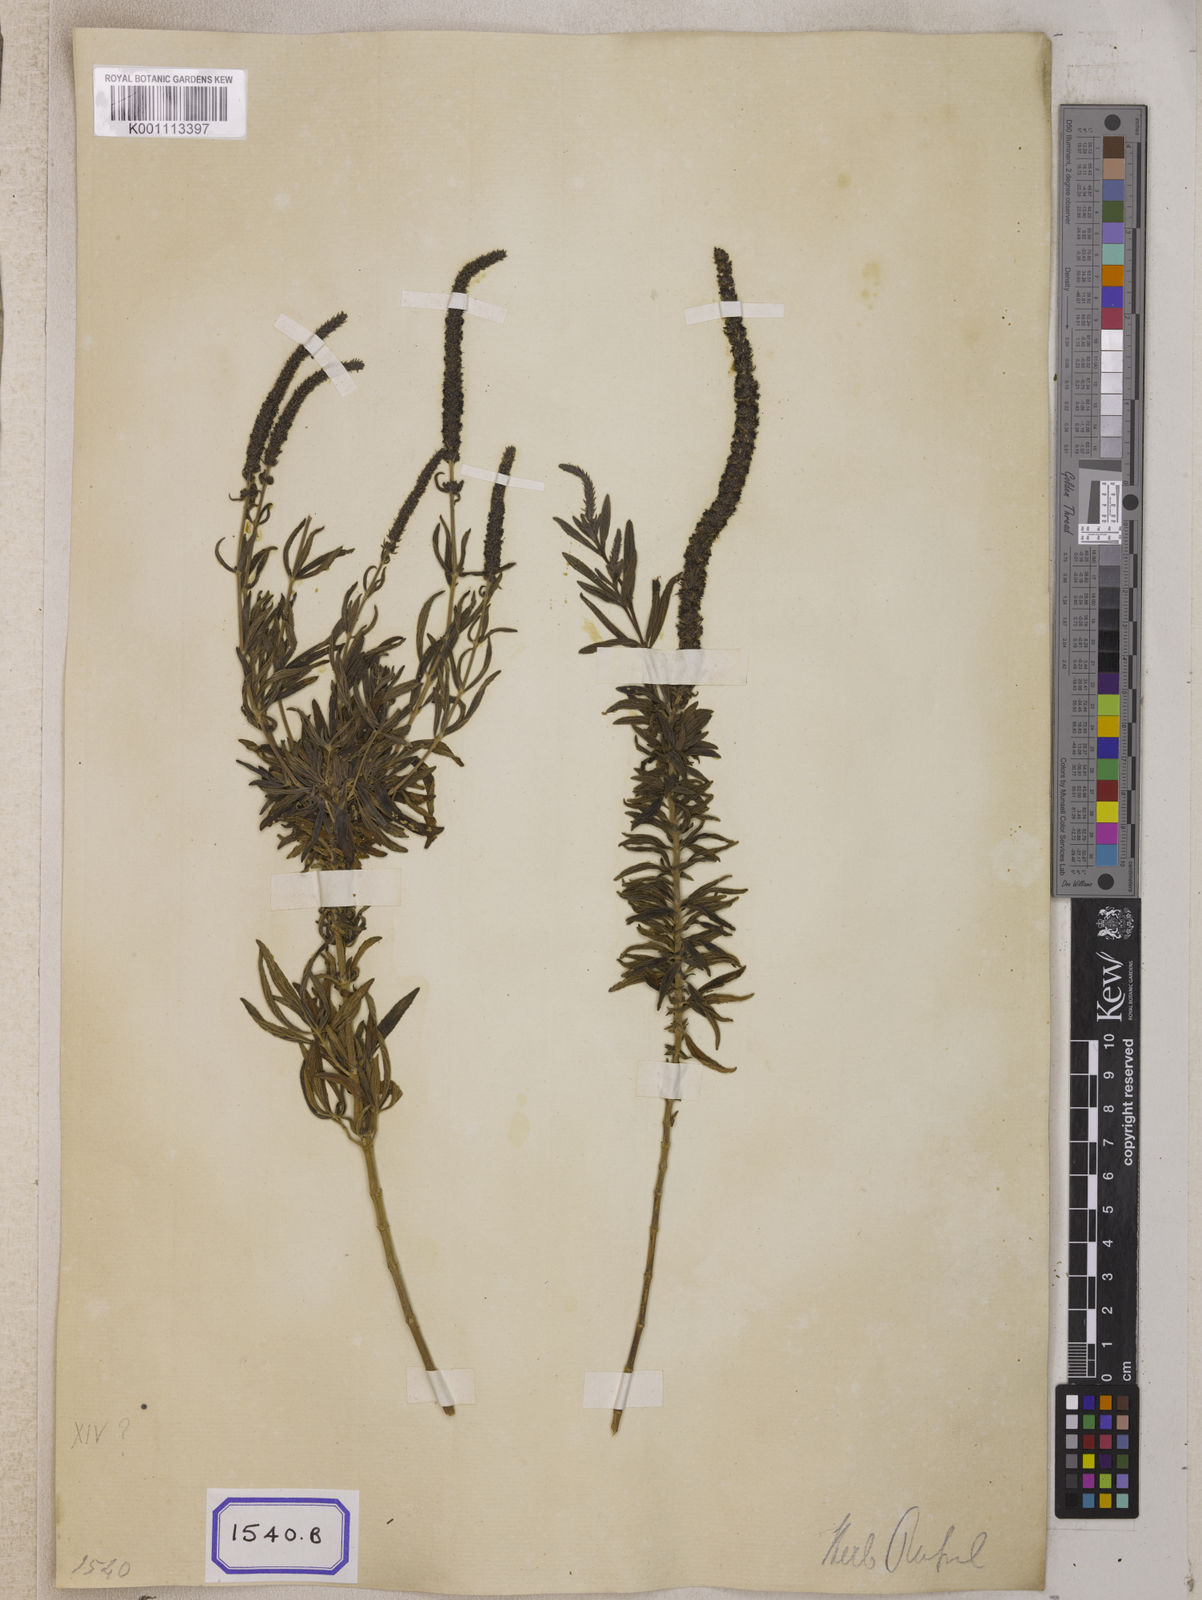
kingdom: Plantae
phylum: Tracheophyta
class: Magnoliopsida
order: Lamiales
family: Lamiaceae
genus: Pogostemon
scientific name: Pogostemon linearis
